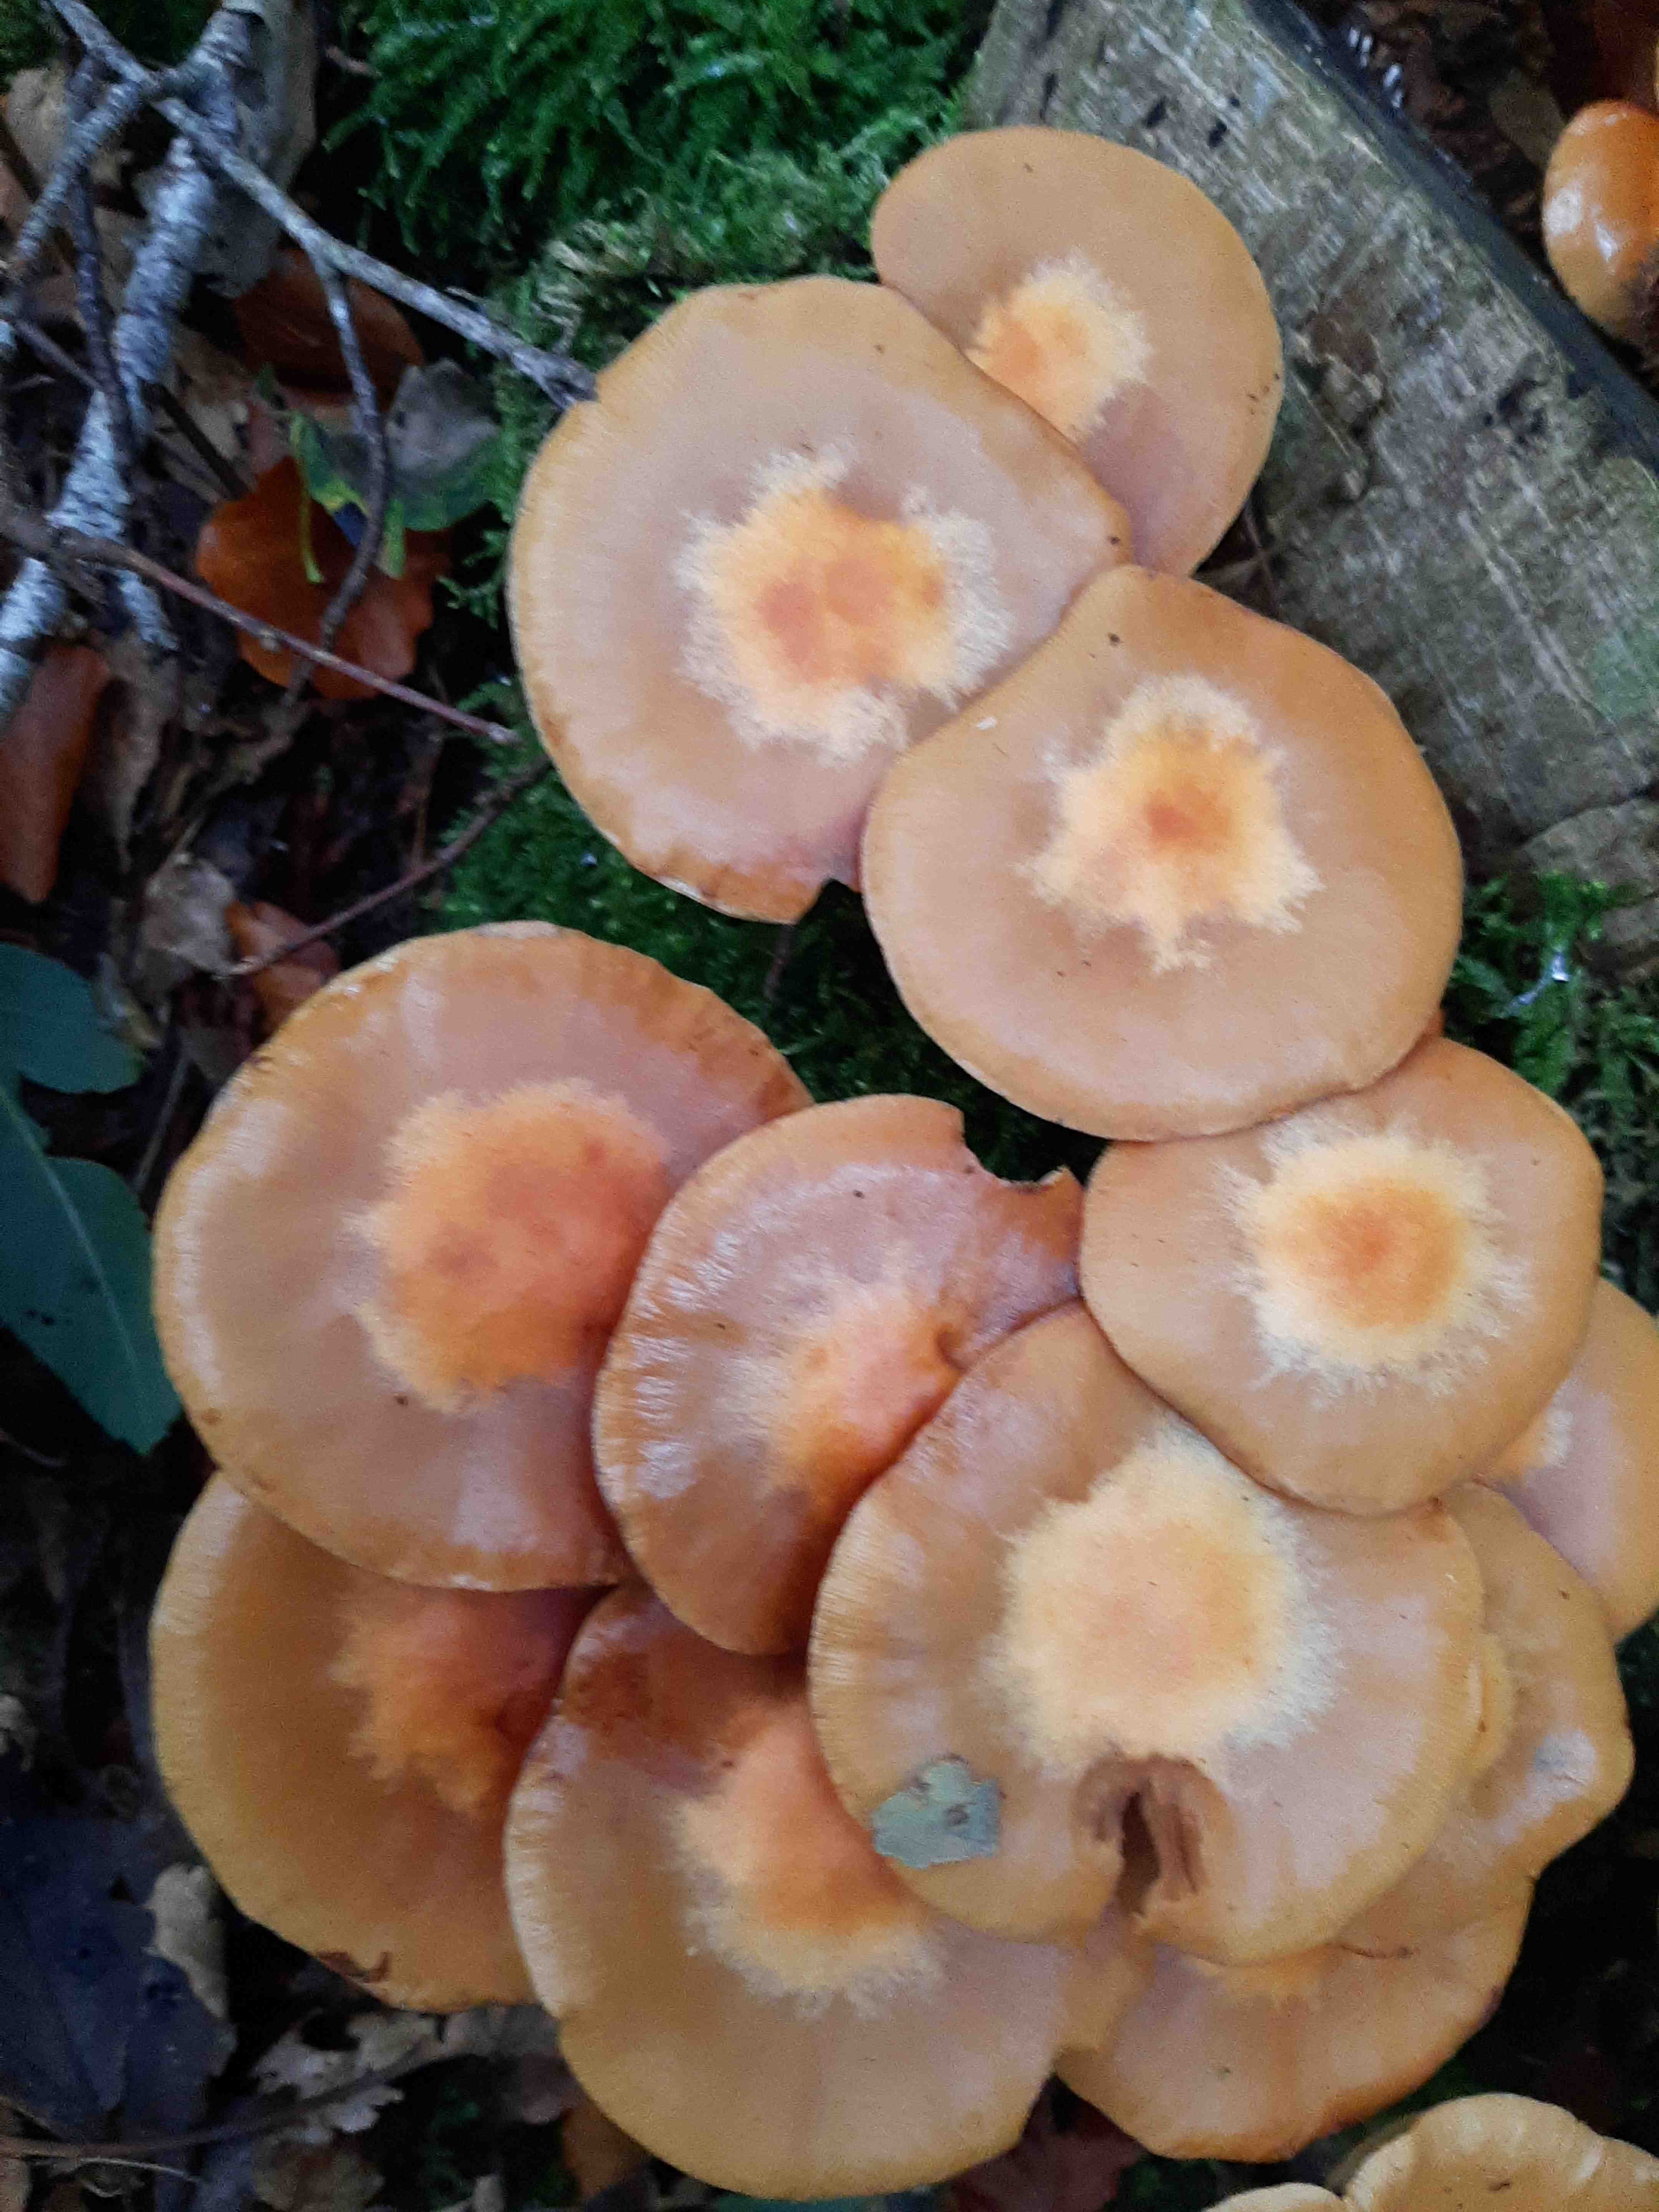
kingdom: Fungi
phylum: Basidiomycota
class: Agaricomycetes
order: Agaricales
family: Strophariaceae
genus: Kuehneromyces
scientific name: Kuehneromyces mutabilis
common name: foranderlig skælhat
